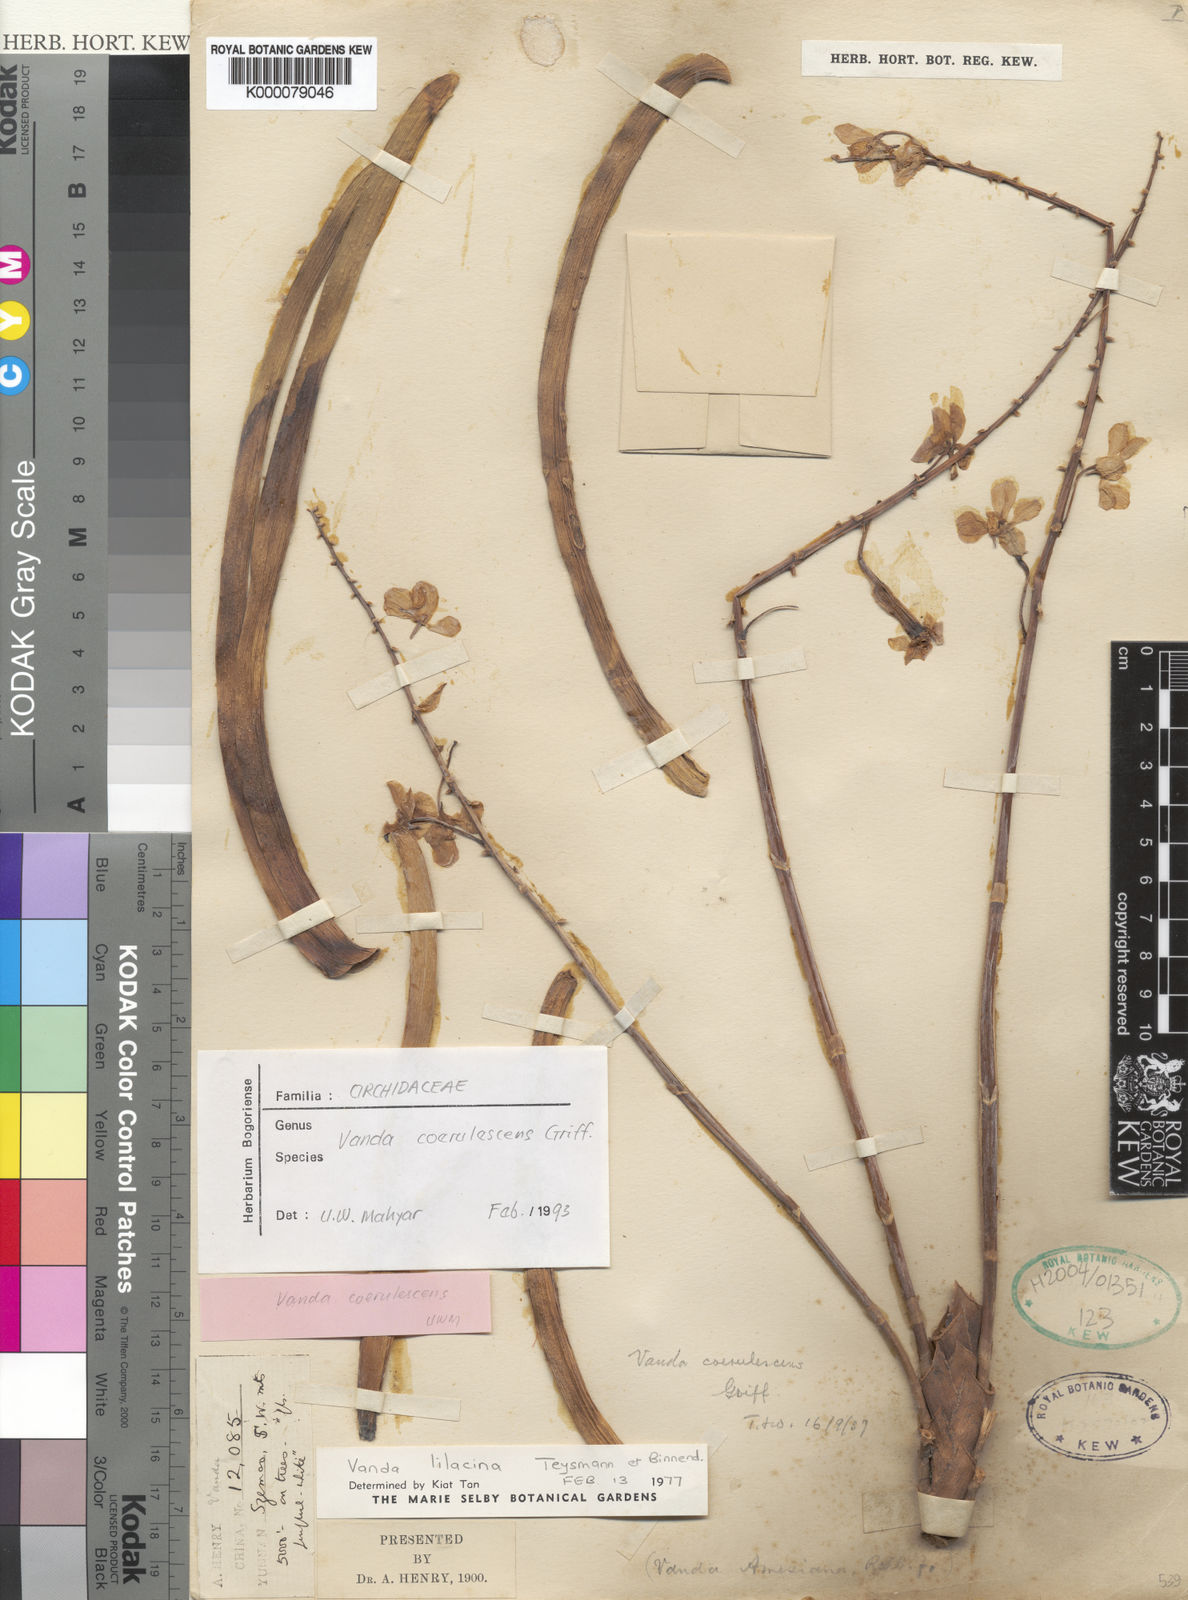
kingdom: Plantae
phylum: Tracheophyta
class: Liliopsida
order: Asparagales
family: Orchidaceae
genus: Vanda
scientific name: Vanda lilacina
